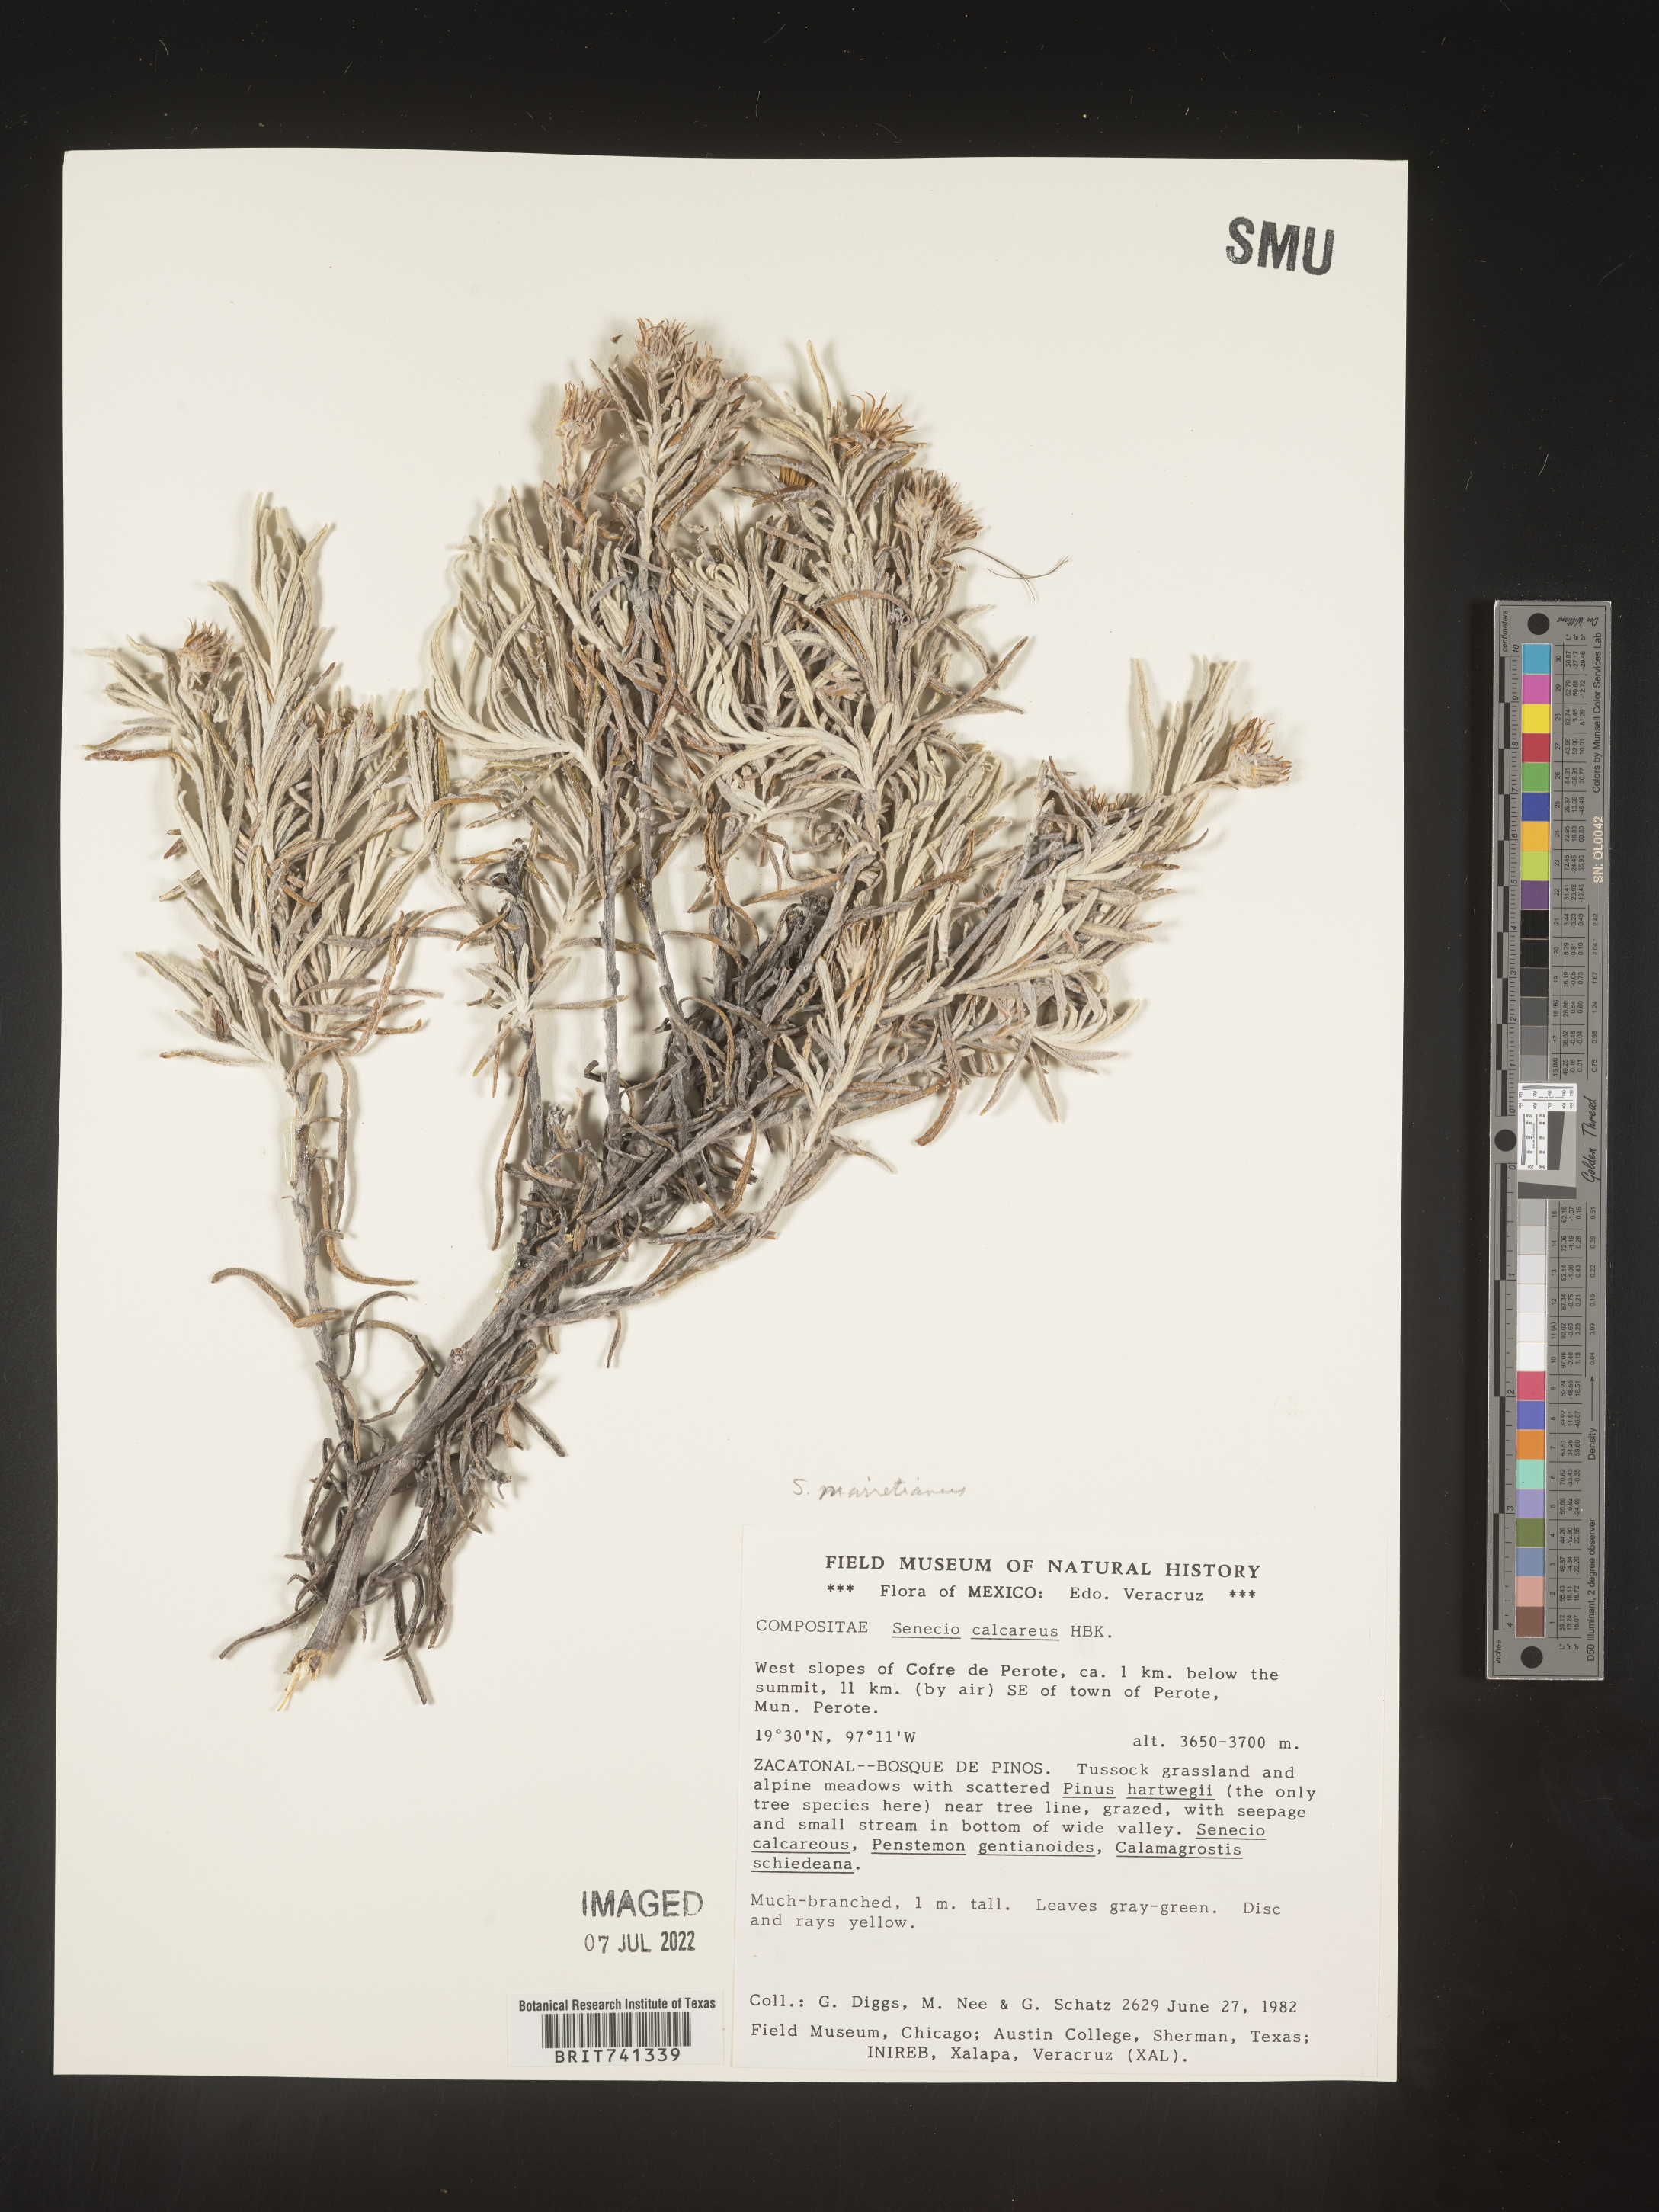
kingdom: Plantae
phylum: Tracheophyta
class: Magnoliopsida
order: Asterales
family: Asteraceae
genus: Senecio
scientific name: Senecio
